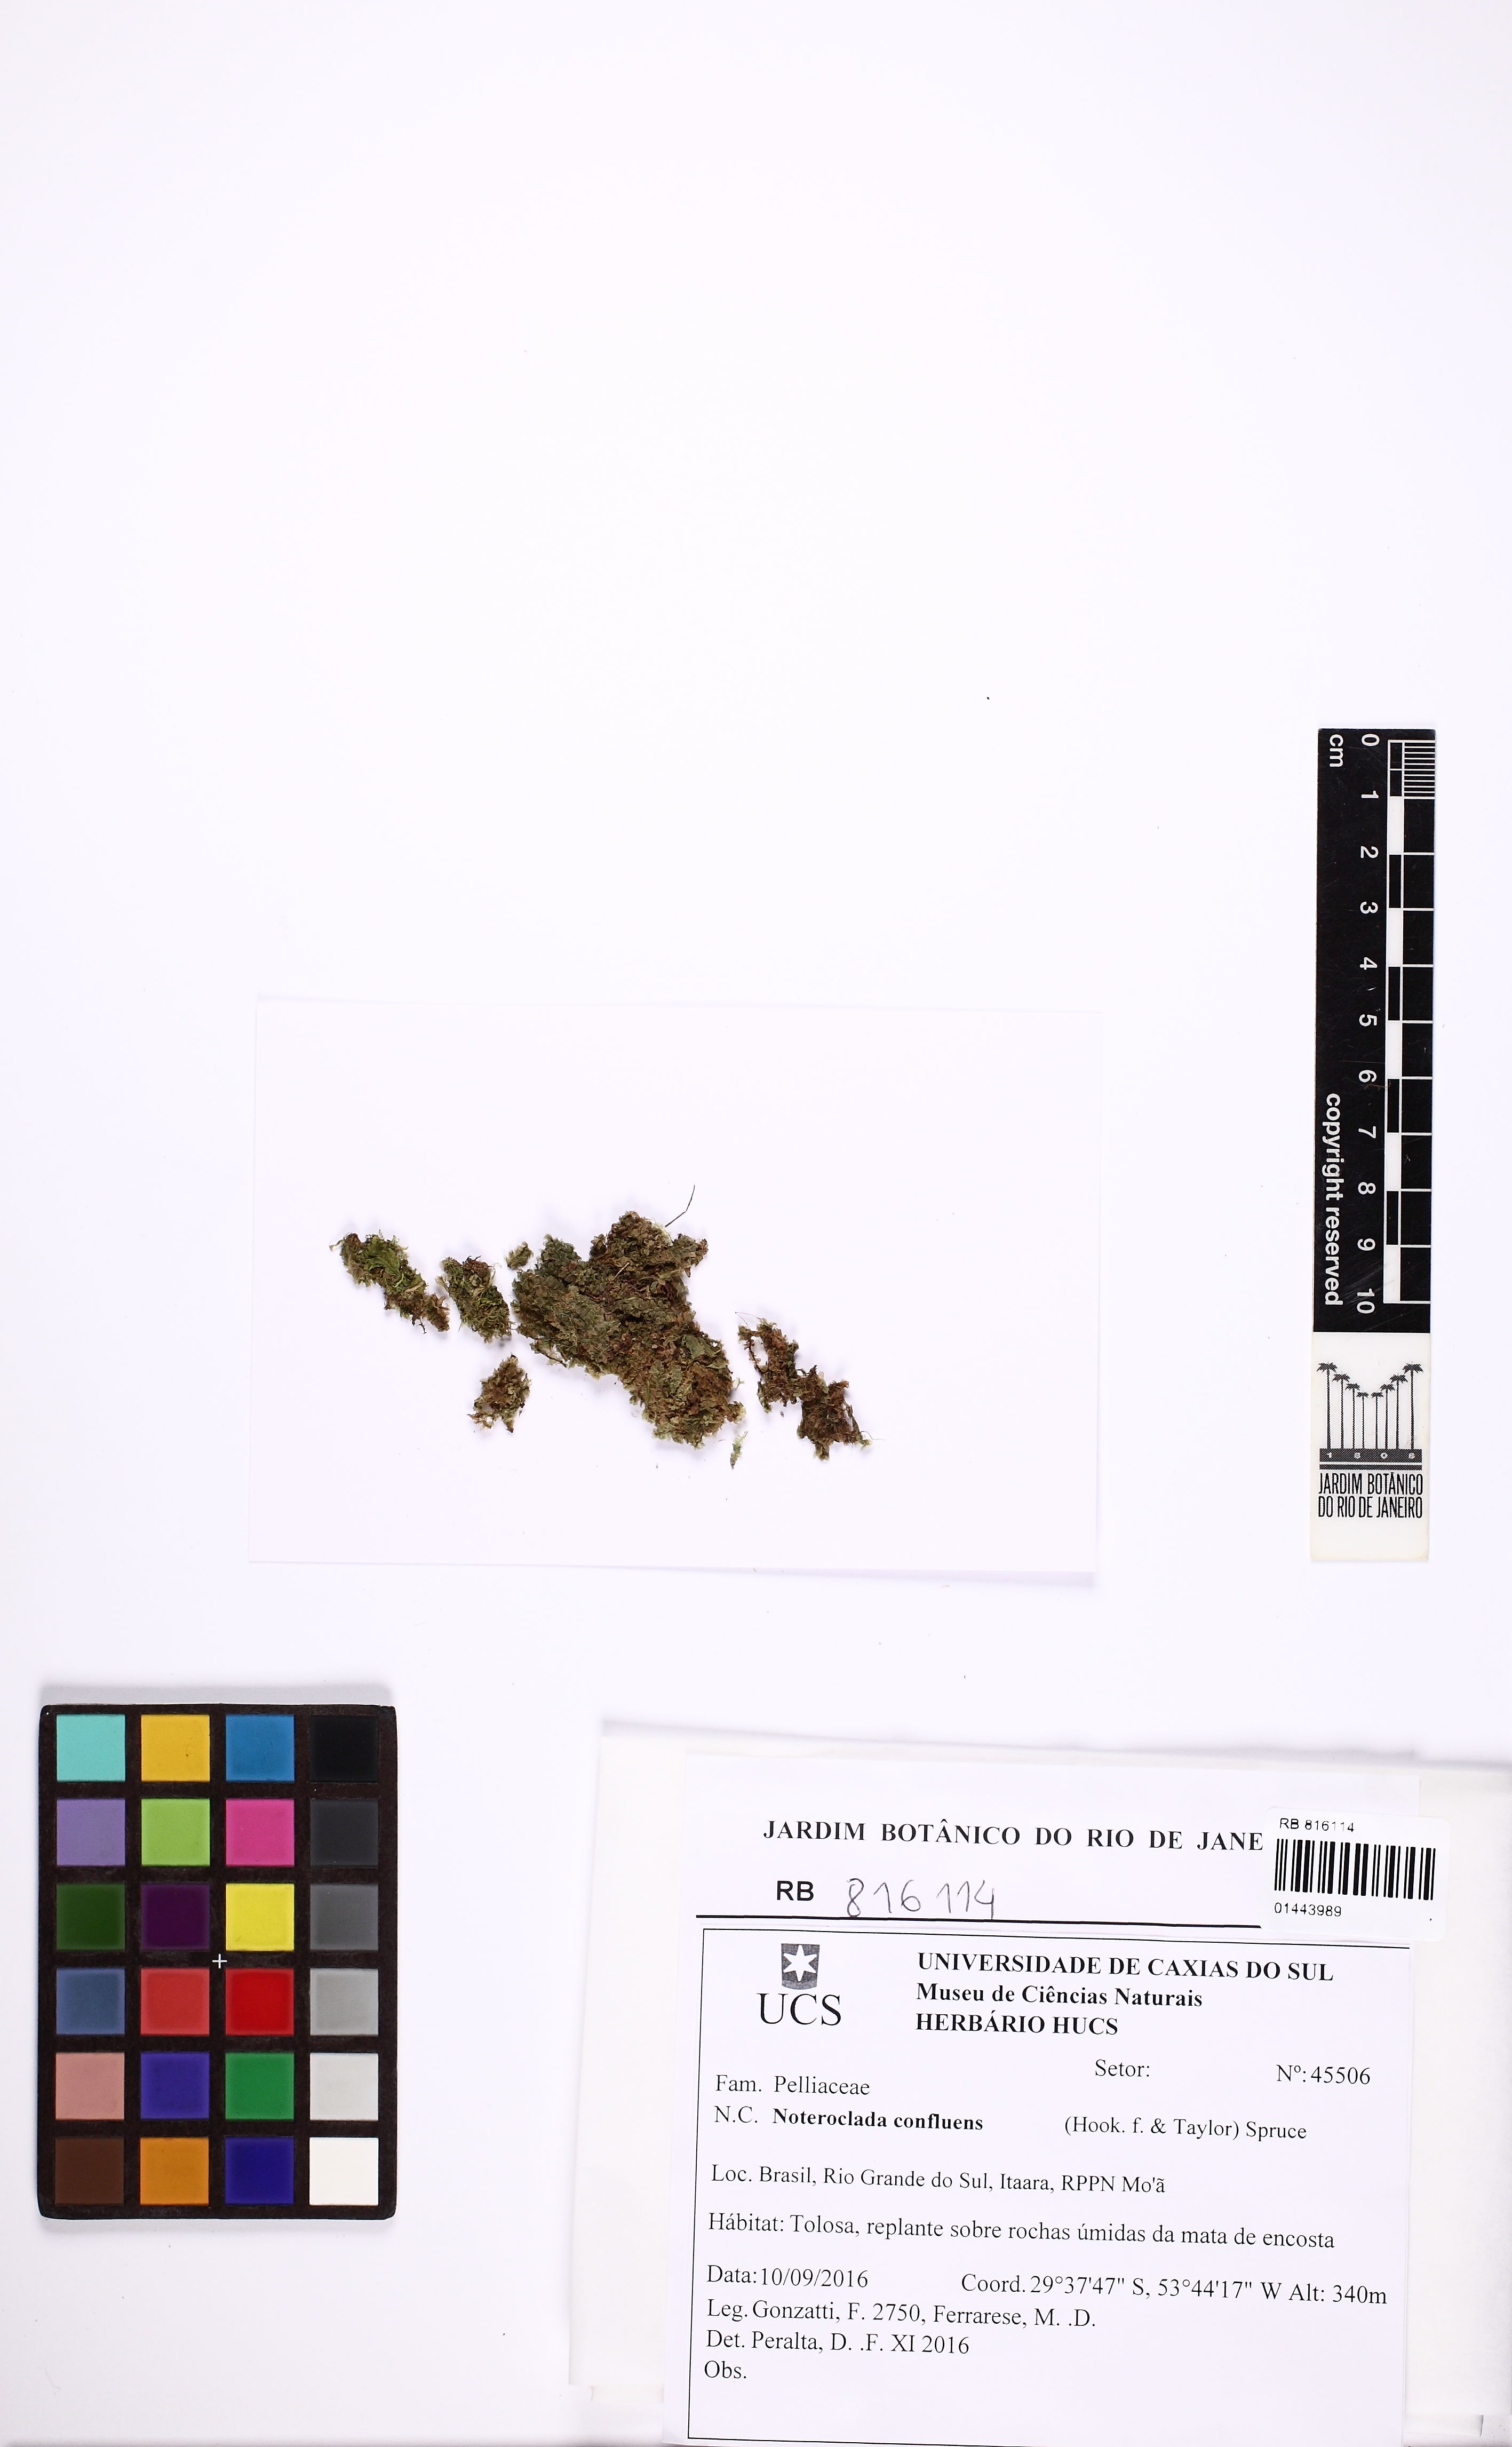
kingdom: Plantae
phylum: Marchantiophyta
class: Jungermanniopsida
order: Pelliales
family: Noterocladaceae
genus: Noteroclada
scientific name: Noteroclada confluens
